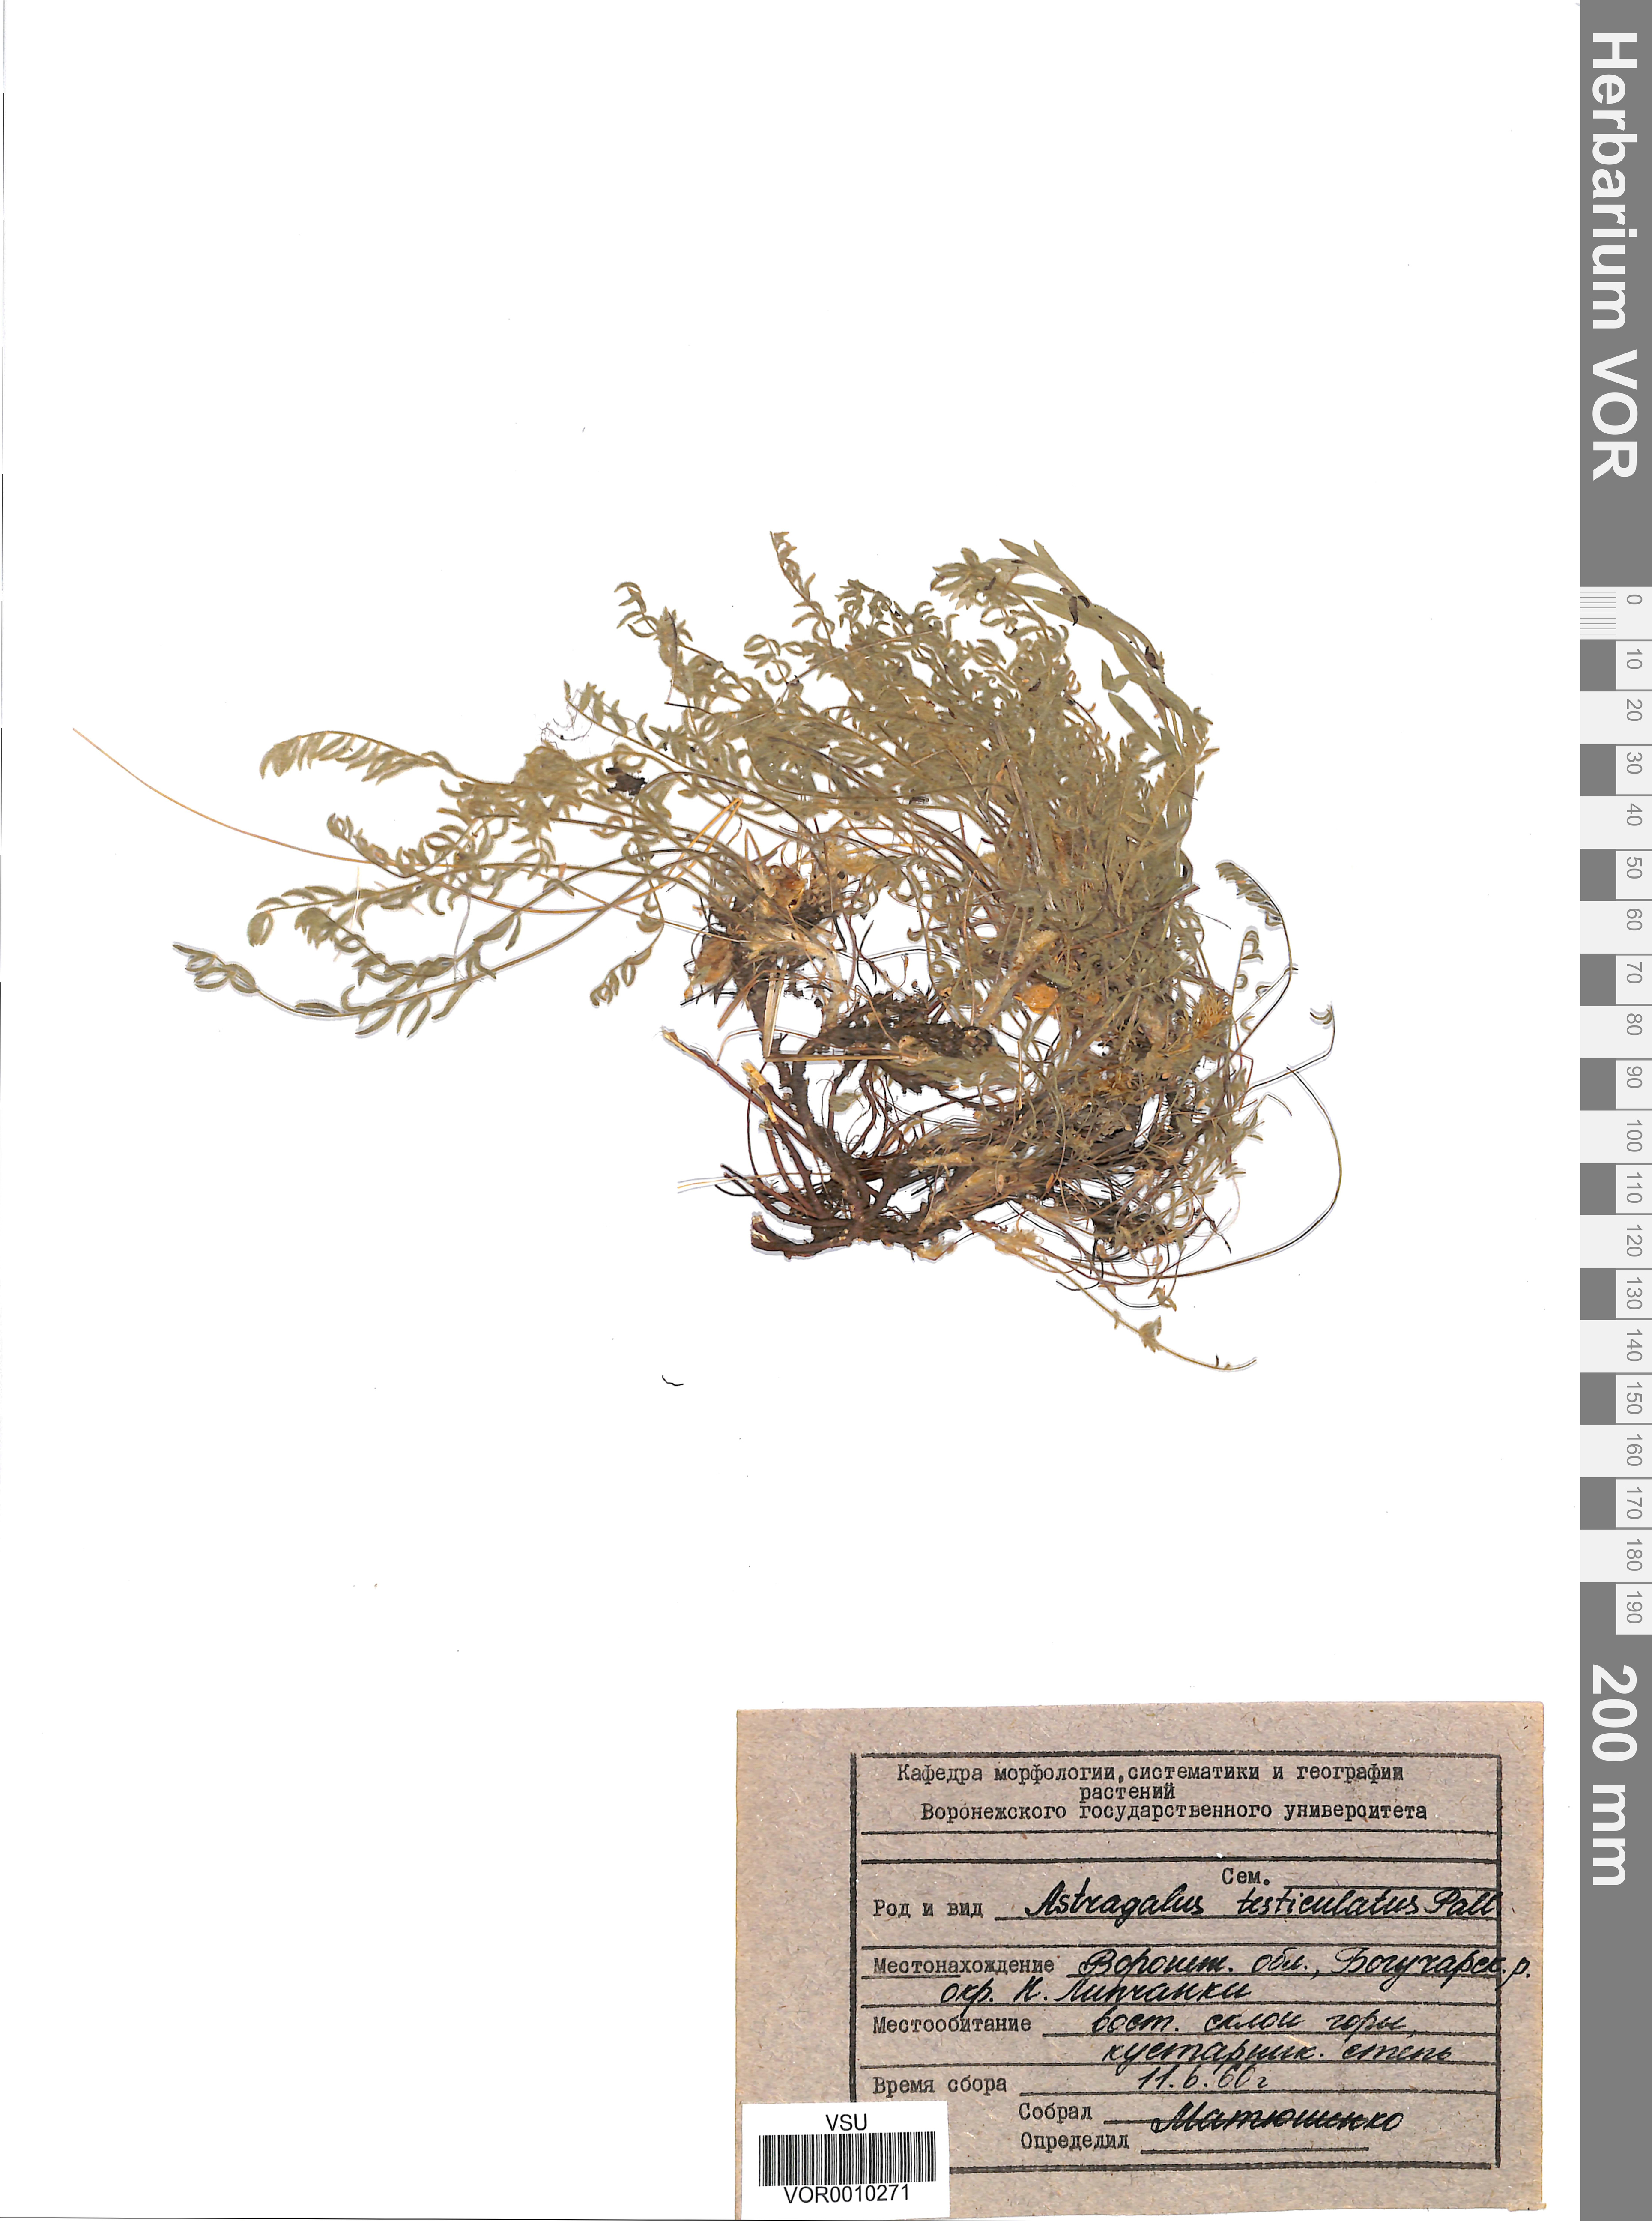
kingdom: Plantae
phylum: Tracheophyta
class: Magnoliopsida
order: Fabales
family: Fabaceae
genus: Astragalus
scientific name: Astragalus testiculatus
